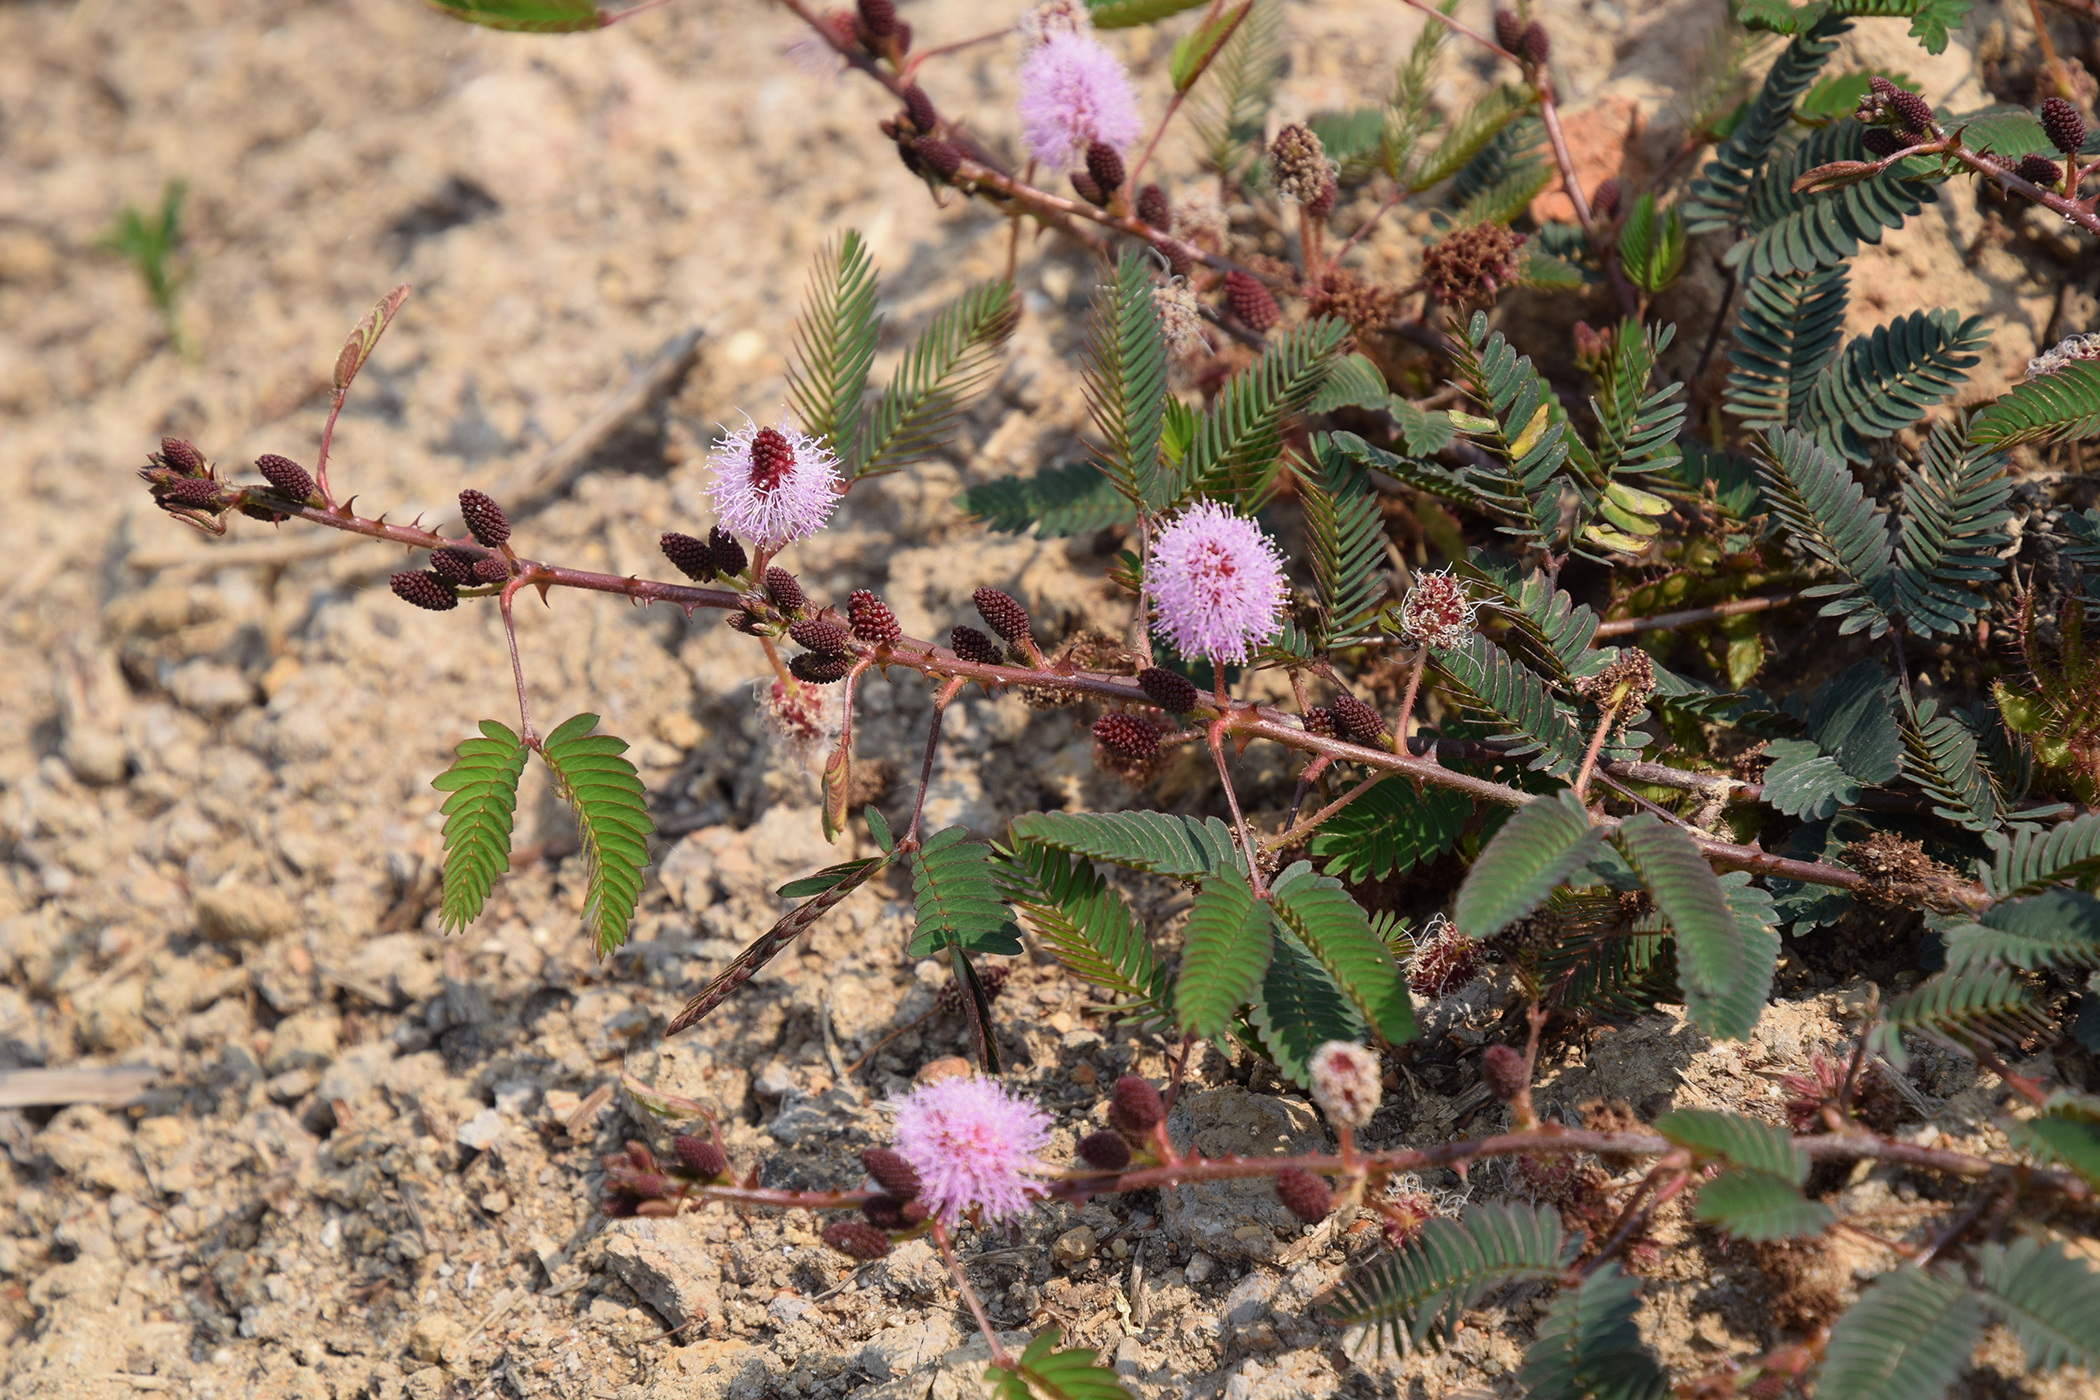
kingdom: Plantae
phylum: Tracheophyta
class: Magnoliopsida
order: Fabales
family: Fabaceae
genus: Mimosa
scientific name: Mimosa pudica
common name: Sensitive plant
